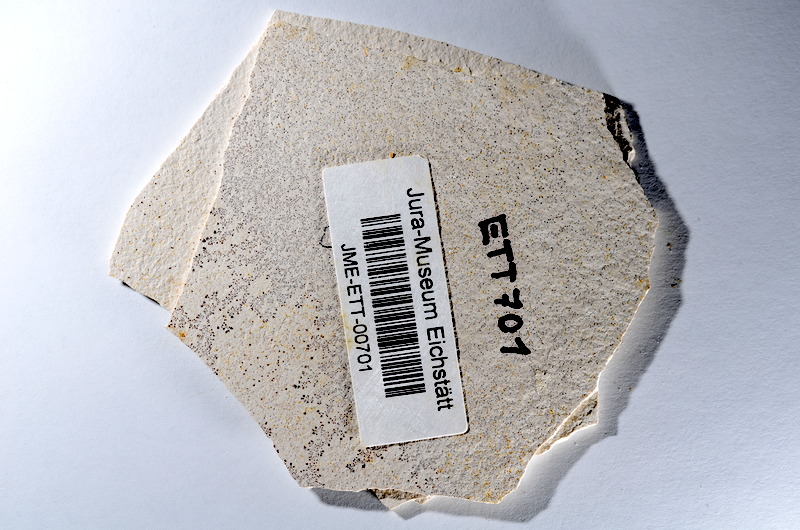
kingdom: Animalia
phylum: Chordata
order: Salmoniformes
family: Orthogonikleithridae
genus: Orthogonikleithrus
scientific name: Orthogonikleithrus hoelli
